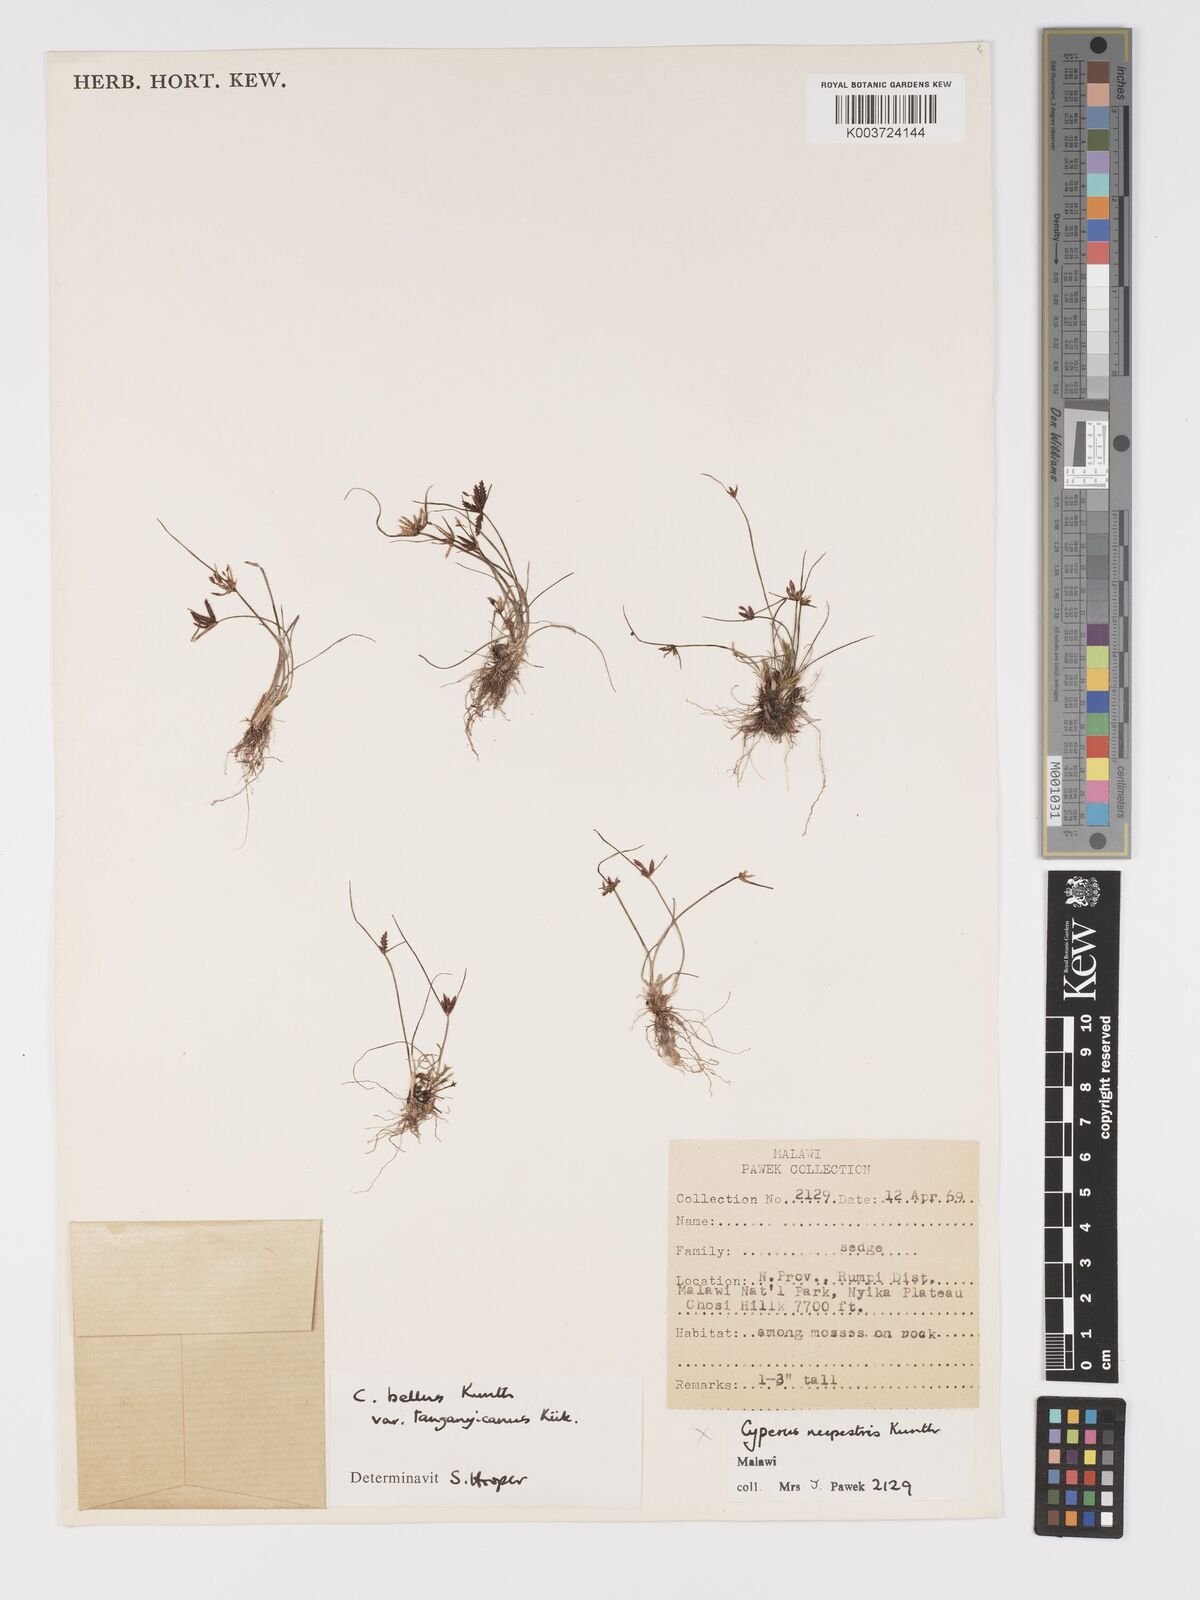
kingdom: Plantae
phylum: Tracheophyta
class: Liliopsida
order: Poales
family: Cyperaceae
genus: Cyperus
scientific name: Cyperus semitrifidus
